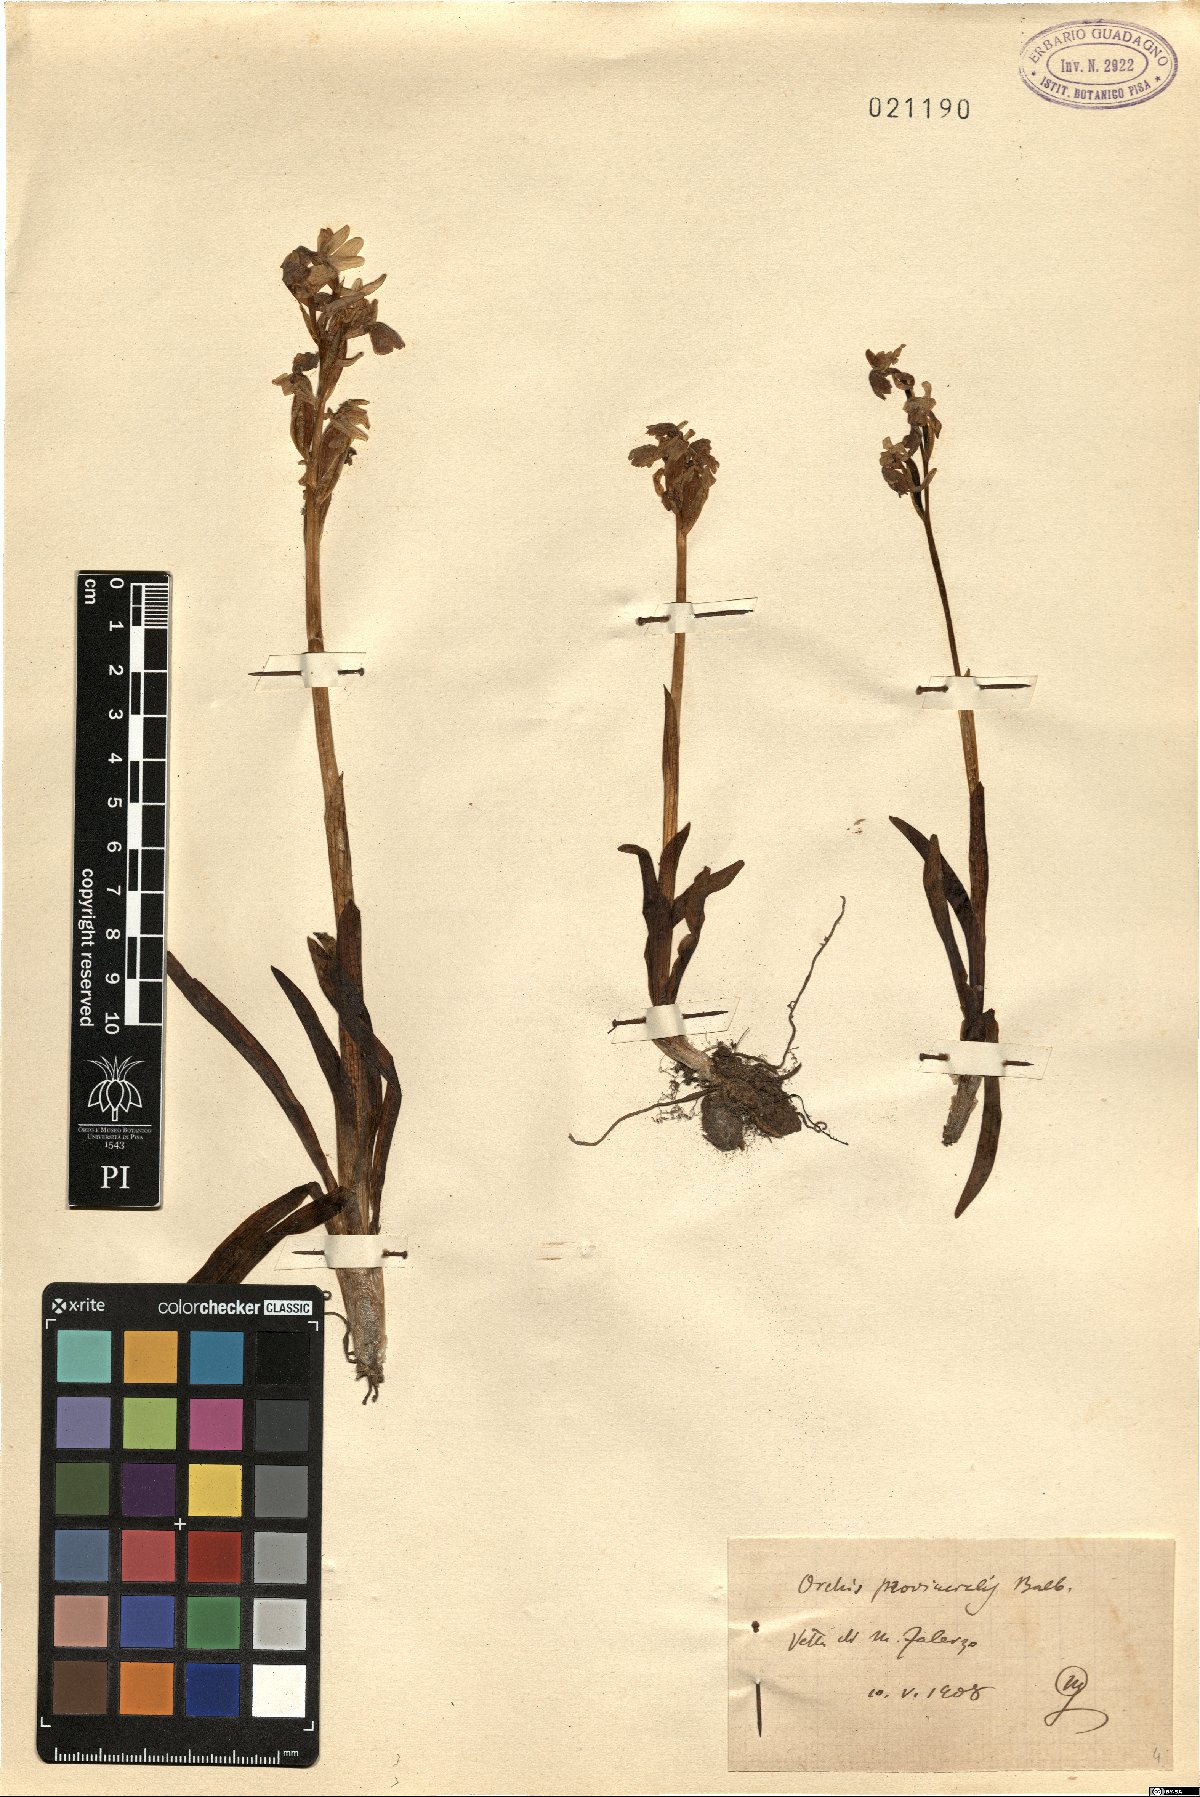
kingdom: Plantae
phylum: Tracheophyta
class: Liliopsida
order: Asparagales
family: Orchidaceae
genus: Orchis
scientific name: Orchis provincialis
